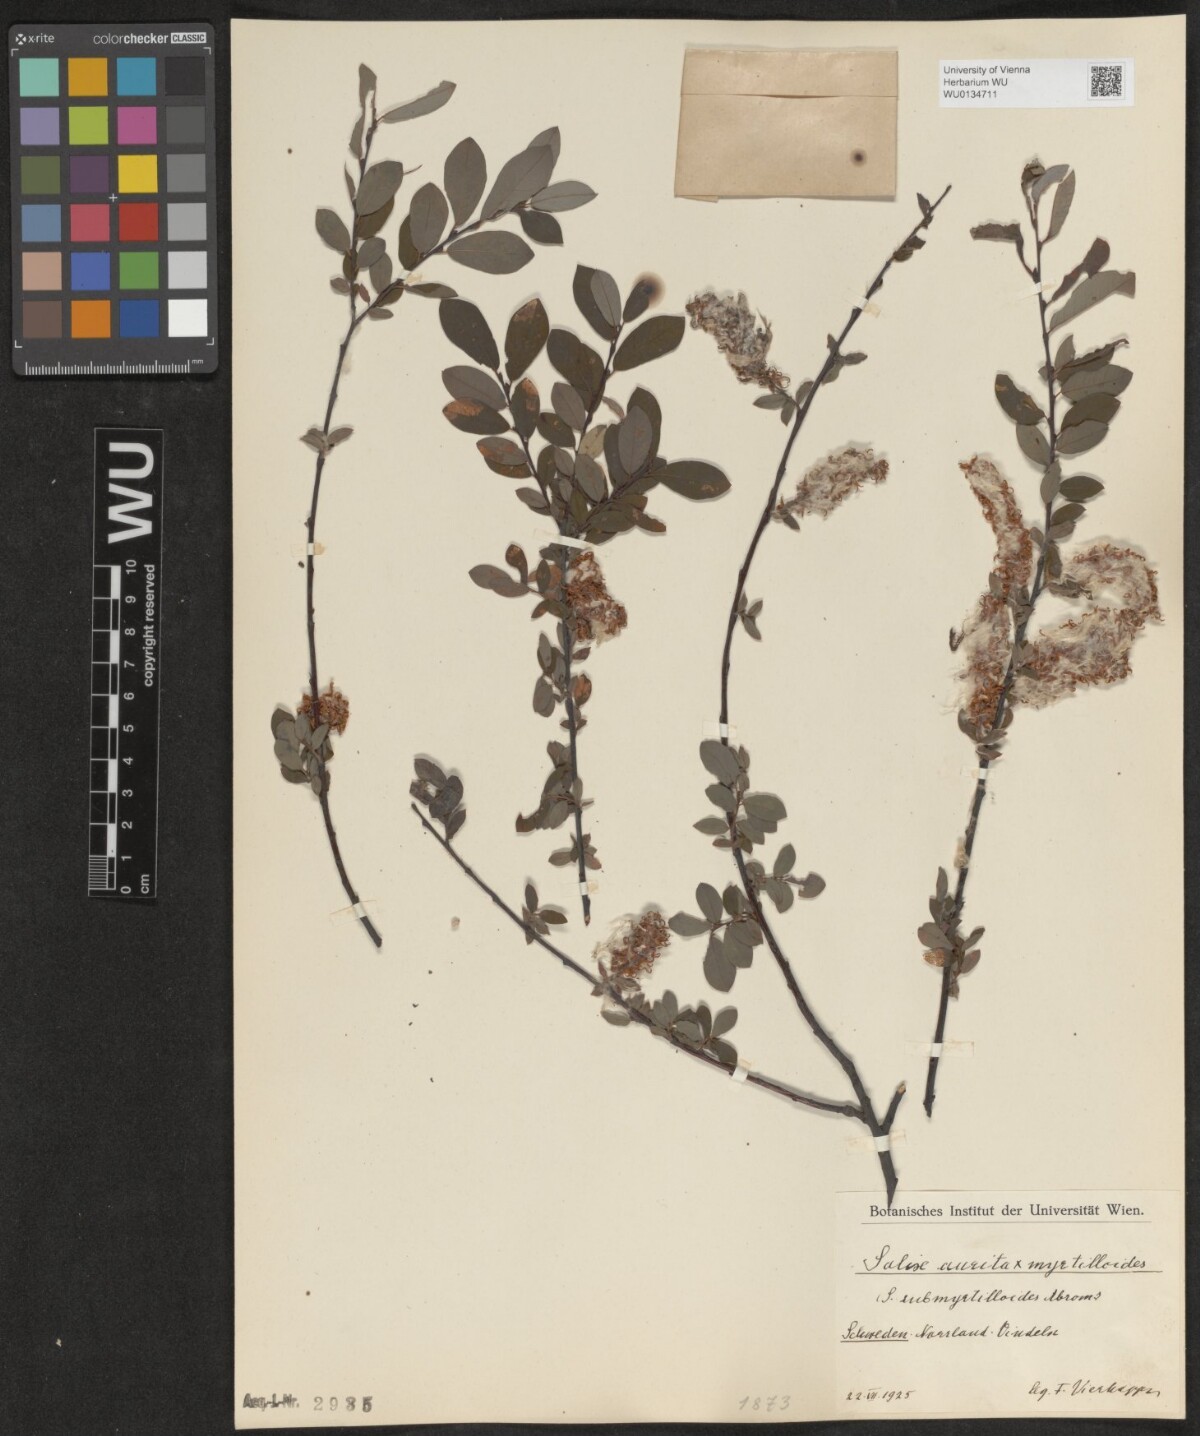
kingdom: Plantae
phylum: Tracheophyta
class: Magnoliopsida
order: Malpighiales
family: Salicaceae
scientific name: Salicaceae
